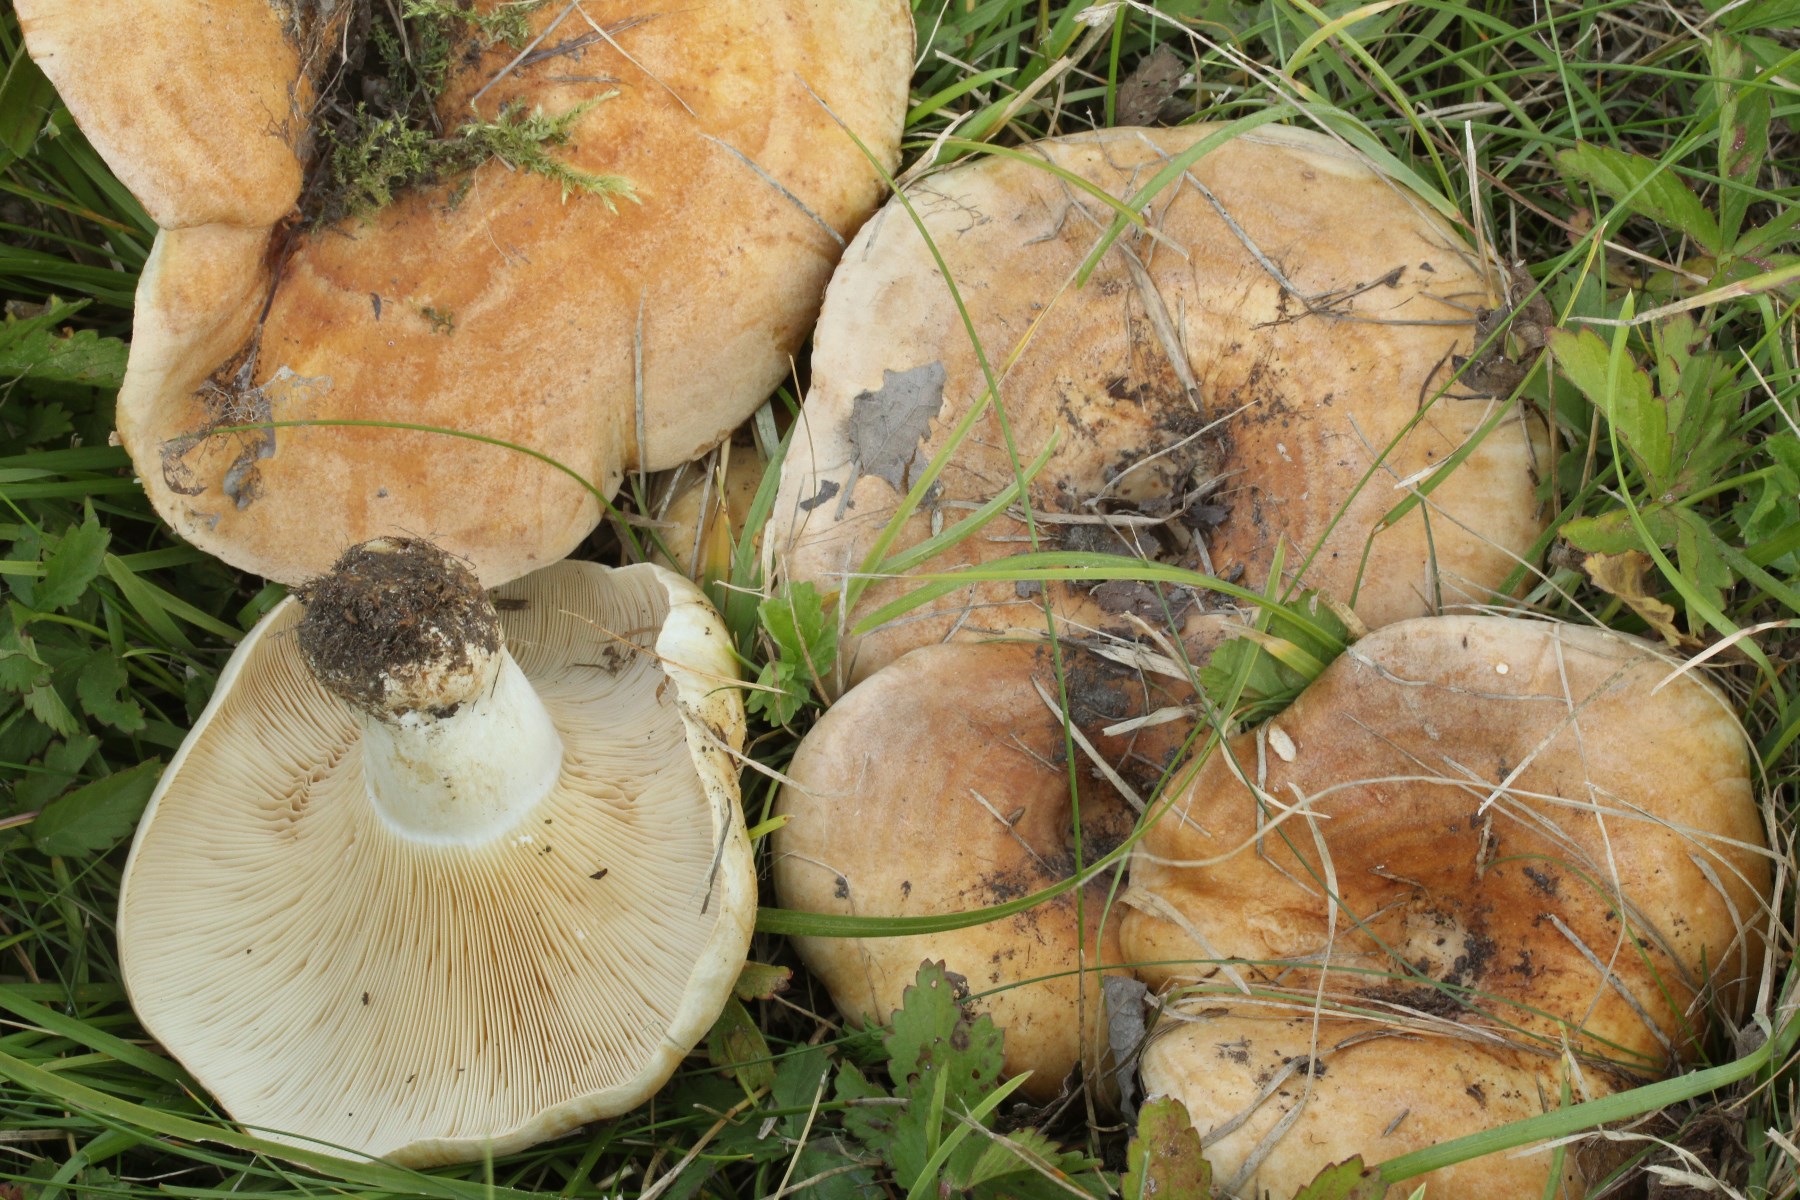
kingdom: Fungi
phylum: Basidiomycota
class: Agaricomycetes
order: Russulales
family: Russulaceae
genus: Lactarius
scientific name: Lactarius evosmus
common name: bæltet mælkehat
